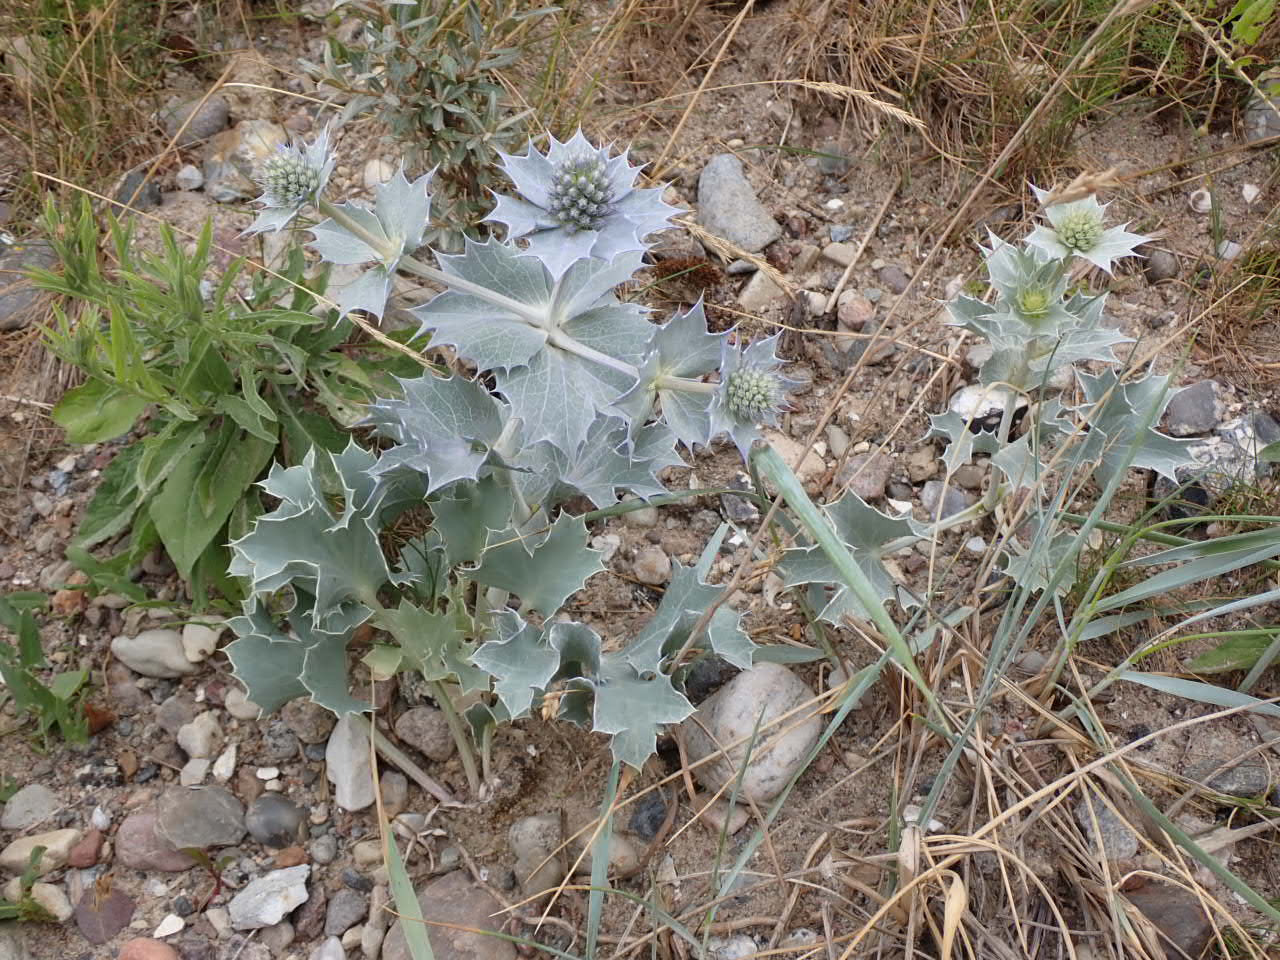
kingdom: Plantae
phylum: Tracheophyta
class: Magnoliopsida
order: Apiales
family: Apiaceae
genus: Eryngium
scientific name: Eryngium maritimum
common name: Strand-mandstro
